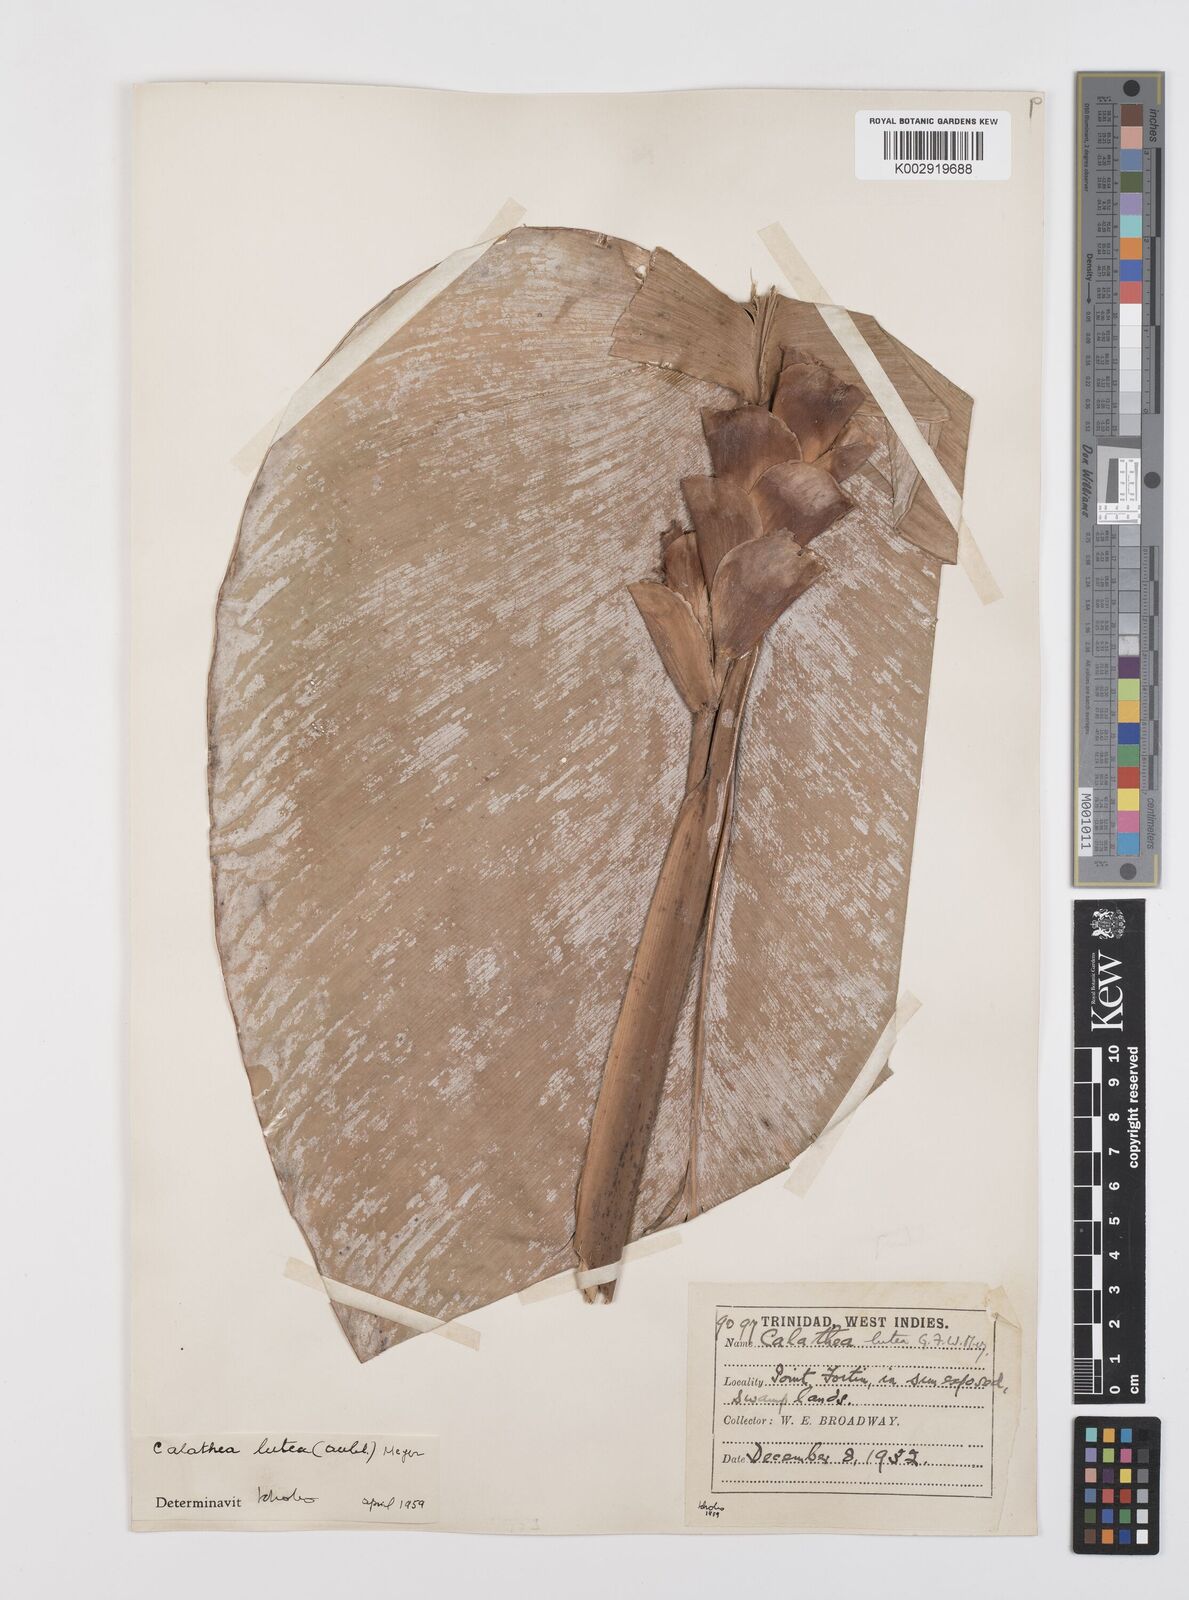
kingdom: Plantae
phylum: Tracheophyta
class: Liliopsida
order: Zingiberales
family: Marantaceae
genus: Calathea
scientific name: Calathea lutea
